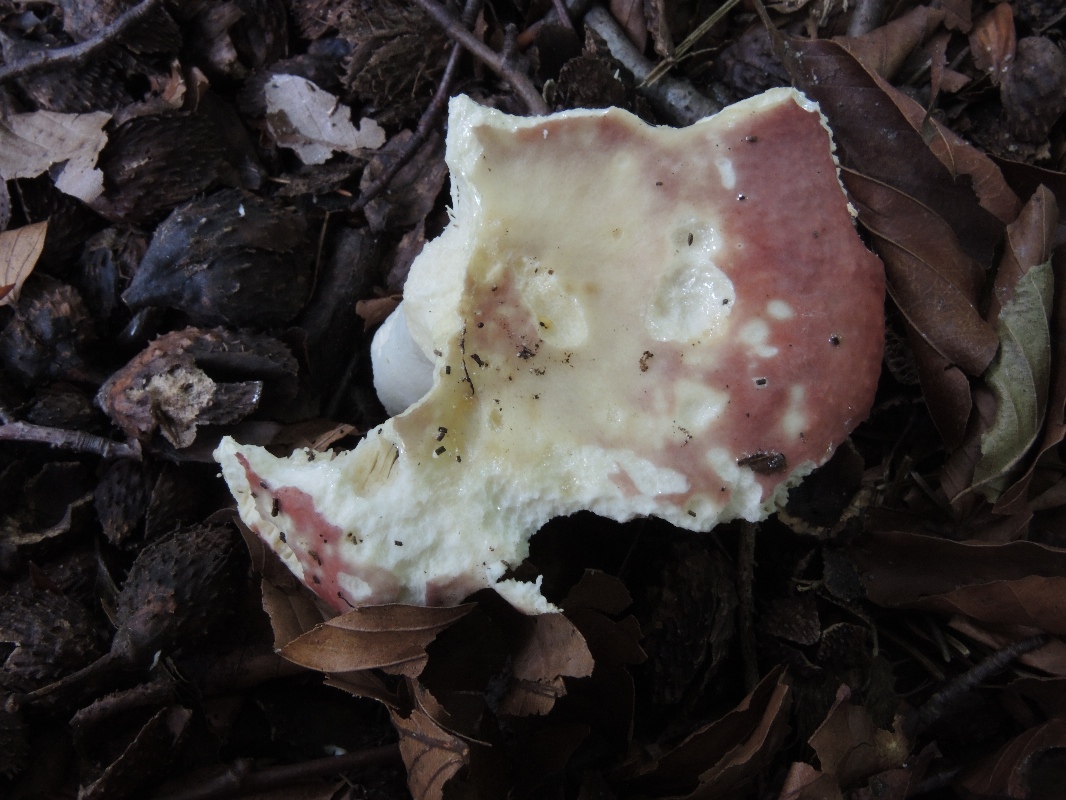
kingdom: Fungi
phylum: Basidiomycota
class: Agaricomycetes
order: Russulales
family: Russulaceae
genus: Russula
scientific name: Russula romellii
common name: romells skørhat
